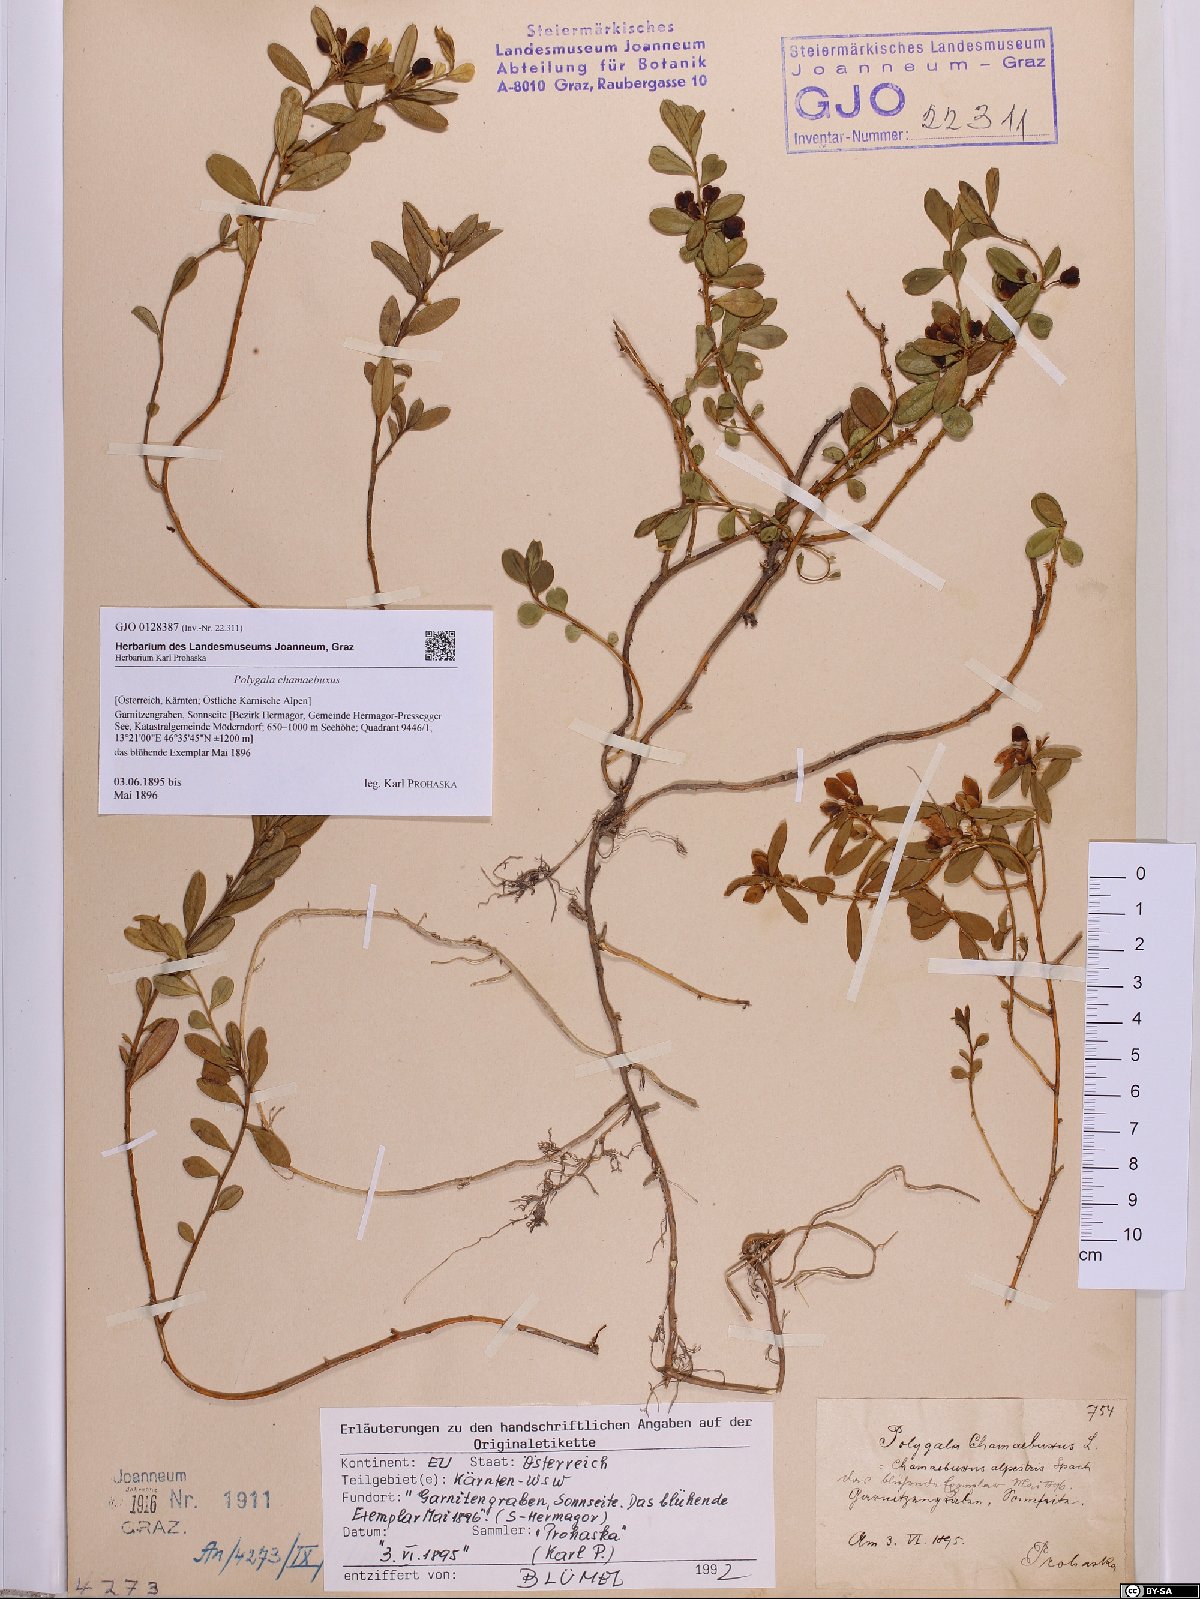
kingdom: Plantae
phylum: Tracheophyta
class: Magnoliopsida
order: Fabales
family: Polygalaceae
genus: Polygaloides
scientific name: Polygaloides chamaebuxus
